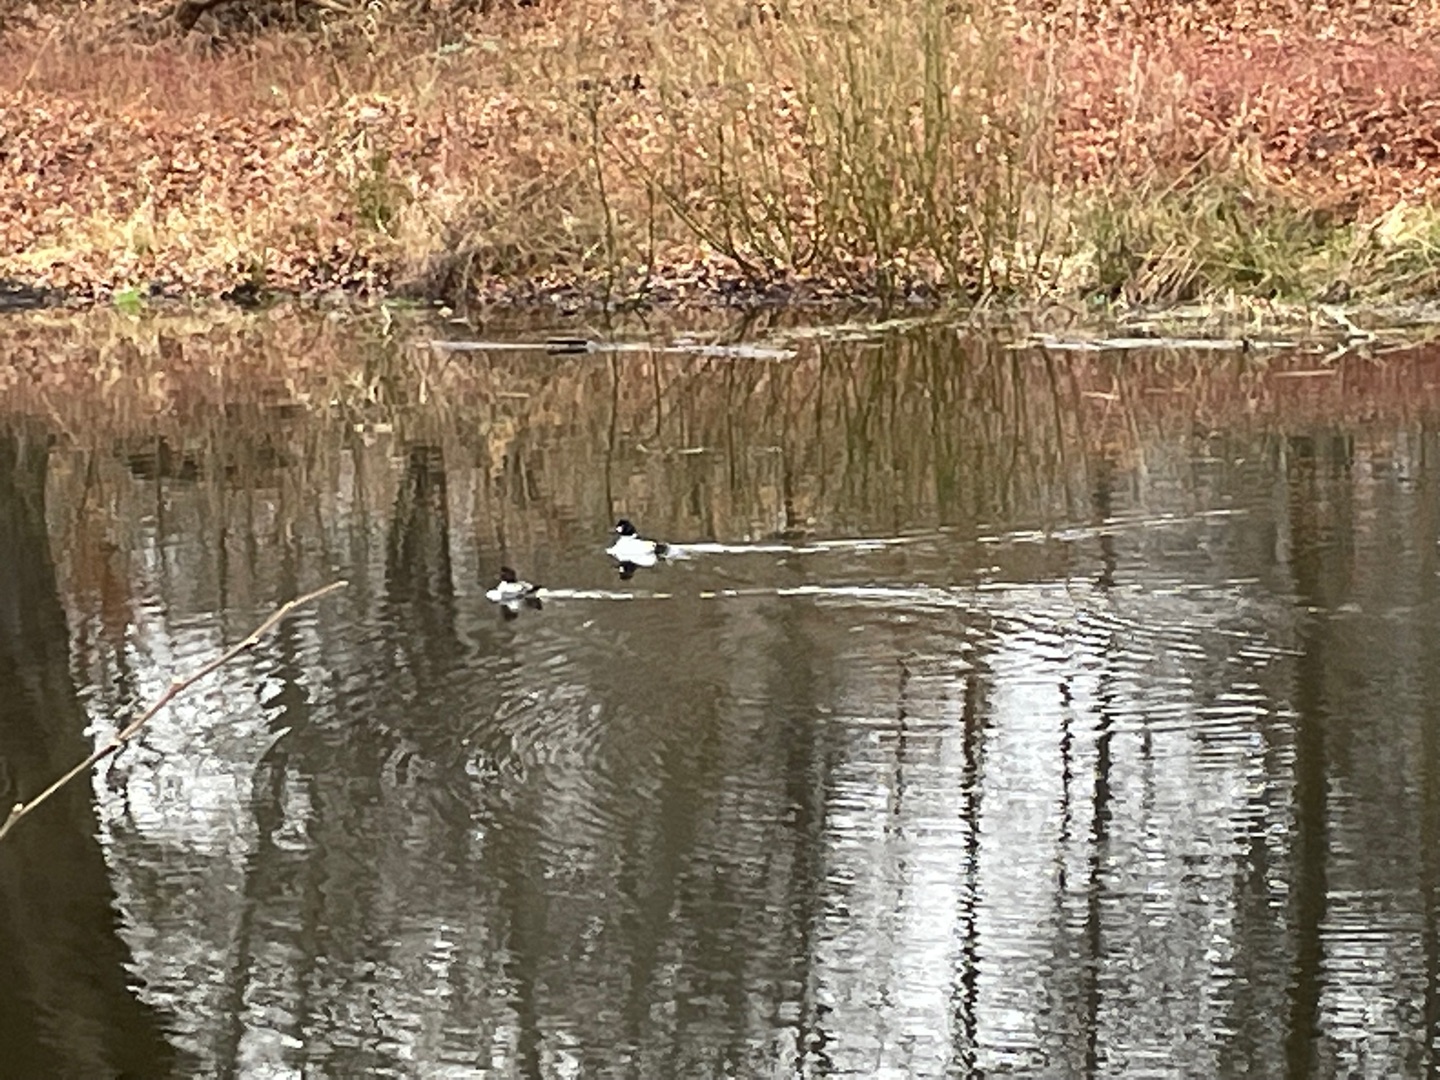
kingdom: Animalia
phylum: Chordata
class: Aves
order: Anseriformes
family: Anatidae
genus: Bucephala
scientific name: Bucephala clangula
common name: Hvinand
